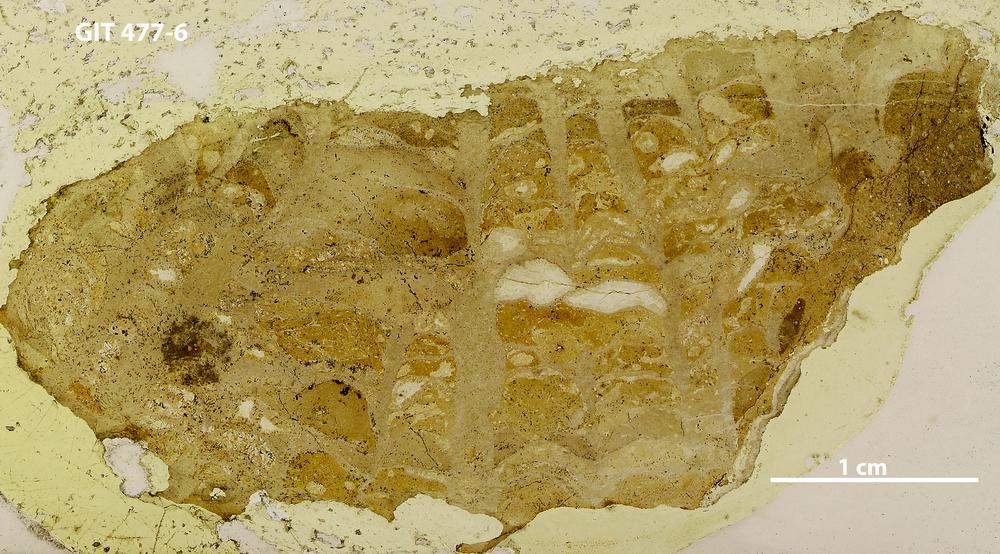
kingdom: Animalia
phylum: Porifera
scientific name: Porifera
